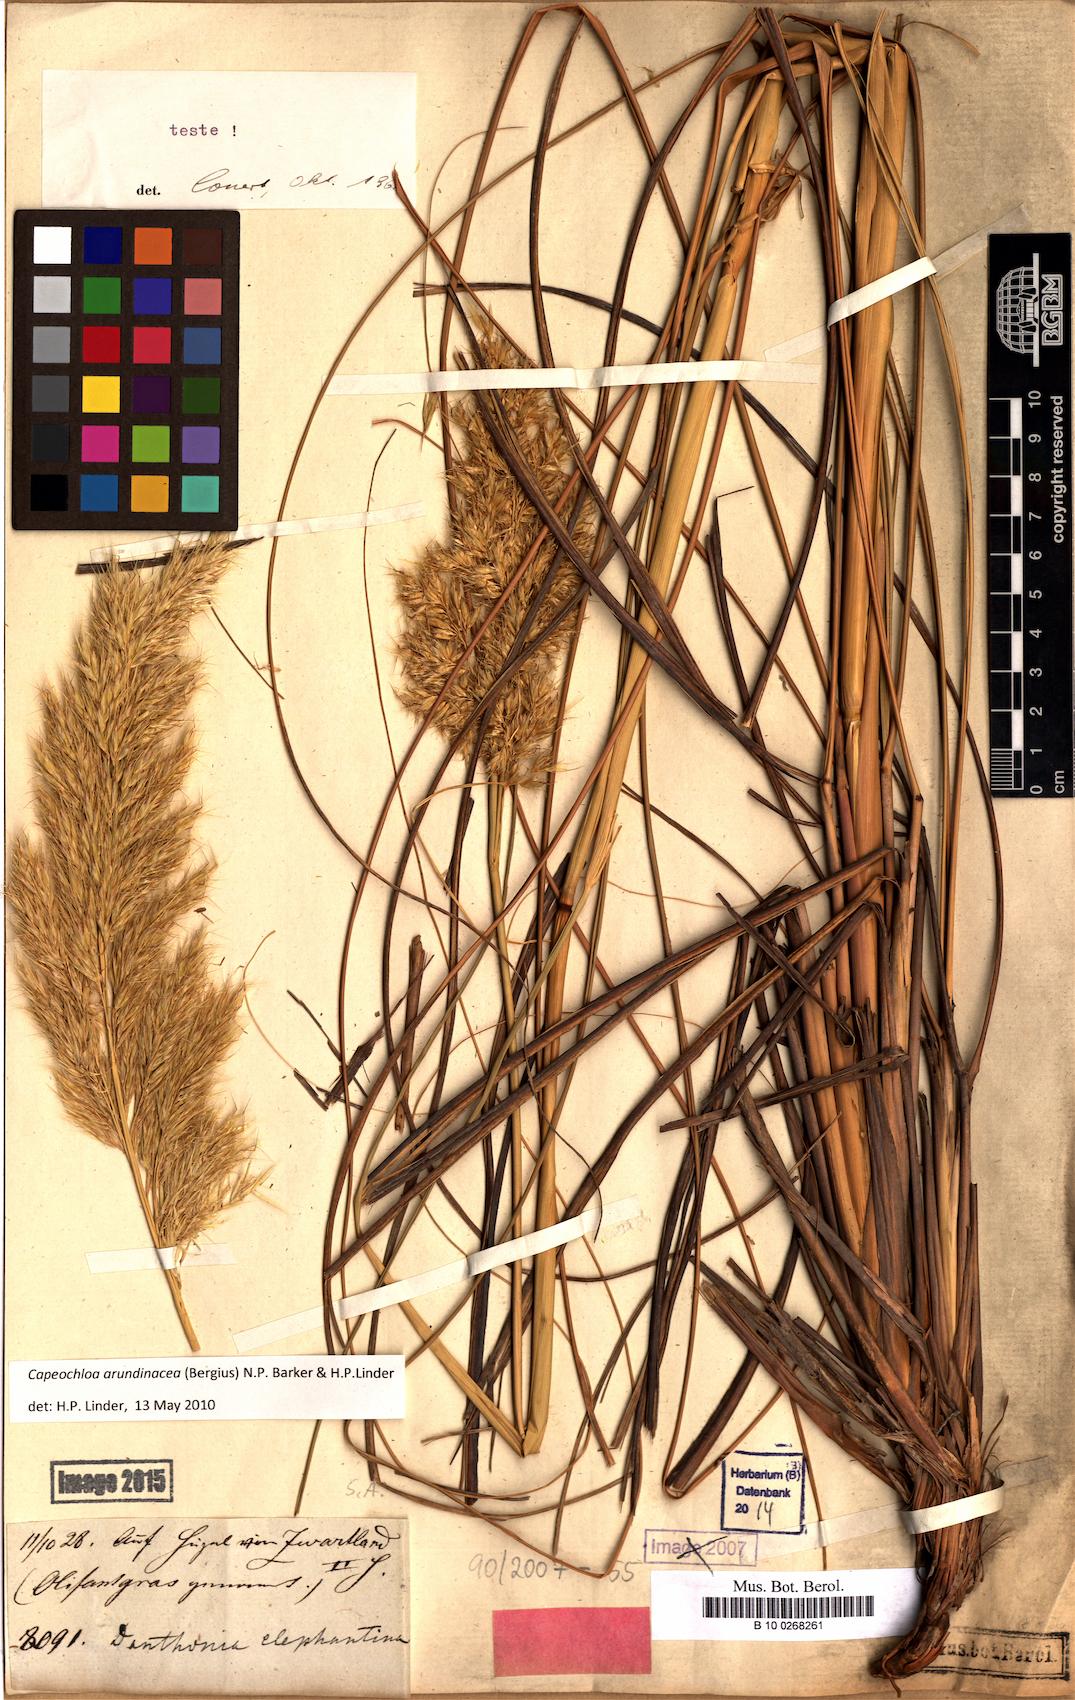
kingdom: Plantae
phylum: Tracheophyta
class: Liliopsida
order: Poales
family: Poaceae
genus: Capeochloa
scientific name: Capeochloa arundinacea
